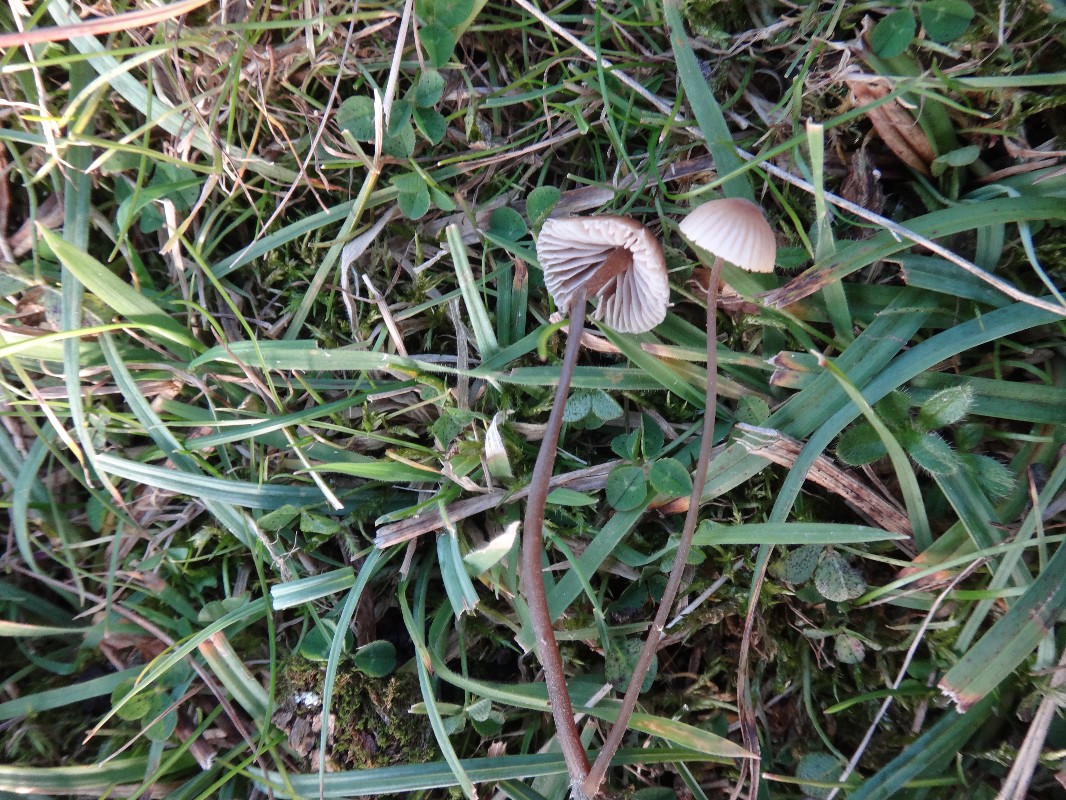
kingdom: Fungi
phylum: Basidiomycota
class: Agaricomycetes
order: Agaricales
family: Mycenaceae
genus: Mycena
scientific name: Mycena leptocephala
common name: klor-huesvamp
